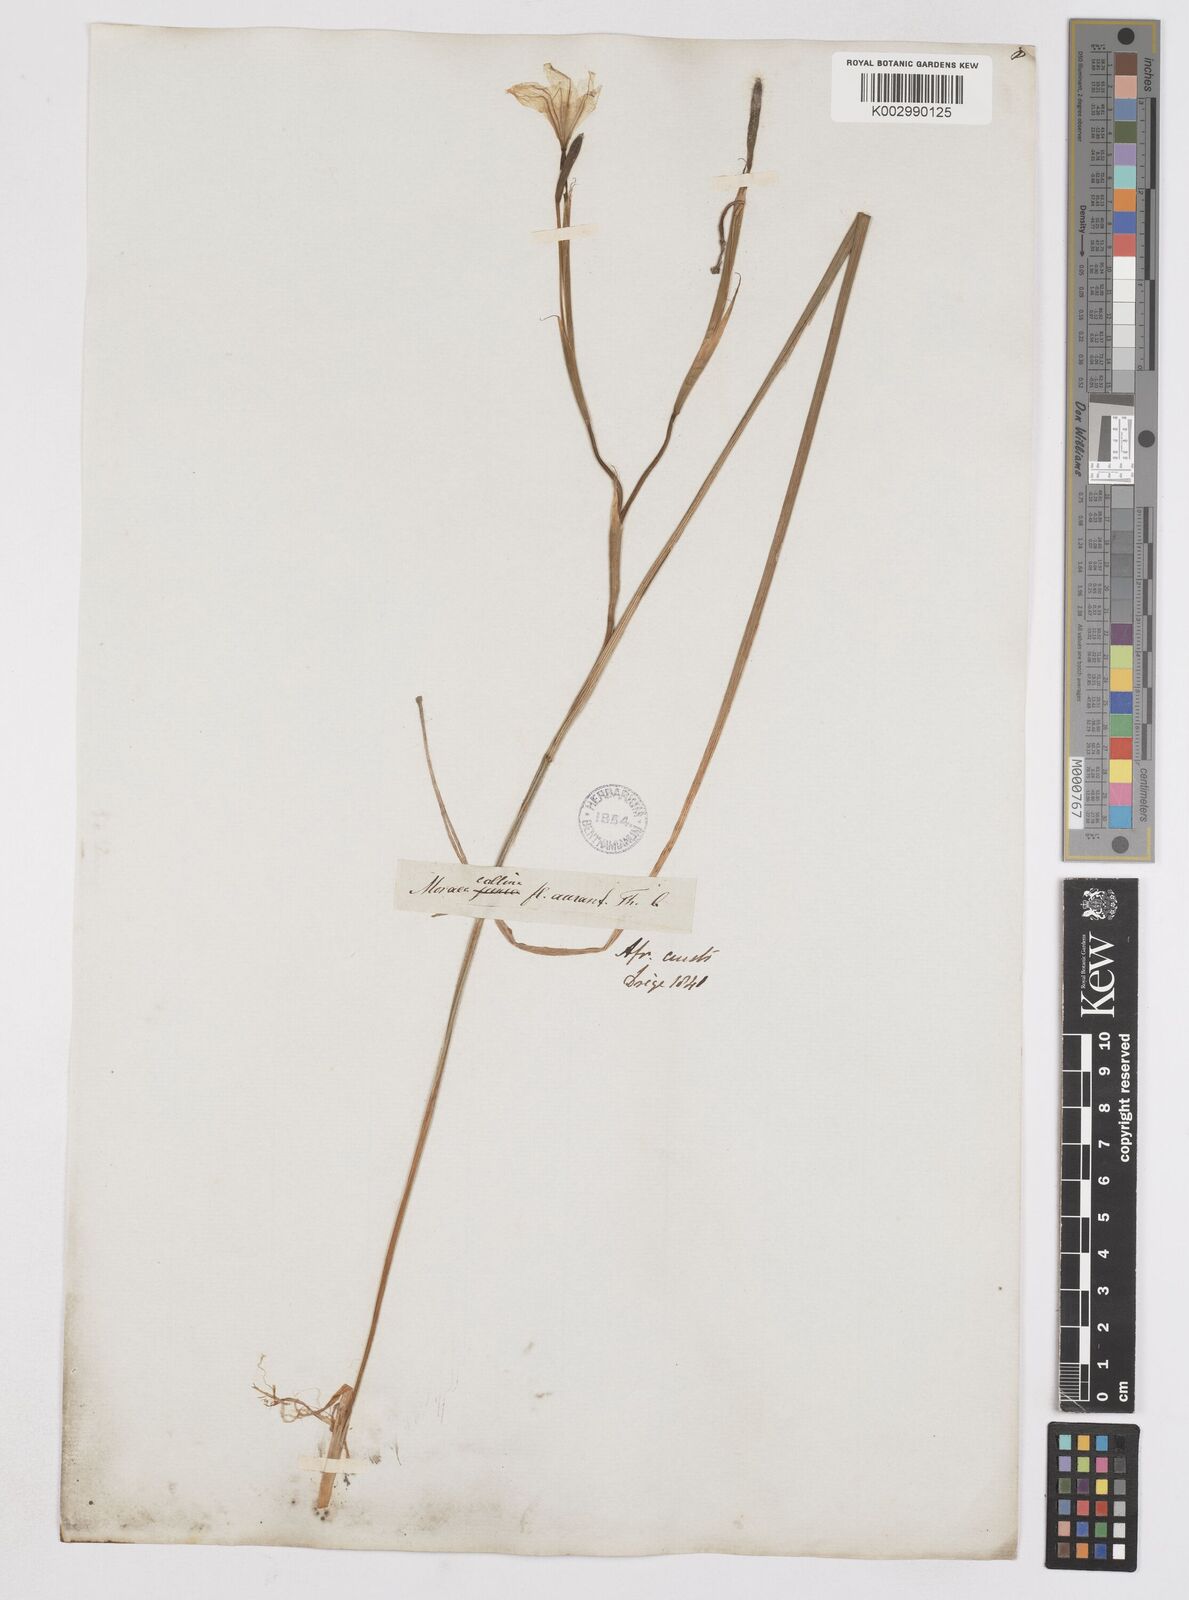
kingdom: Plantae
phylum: Tracheophyta
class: Liliopsida
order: Asparagales
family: Iridaceae
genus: Moraea
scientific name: Moraea flaccida
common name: One-leaf cape-tulip
